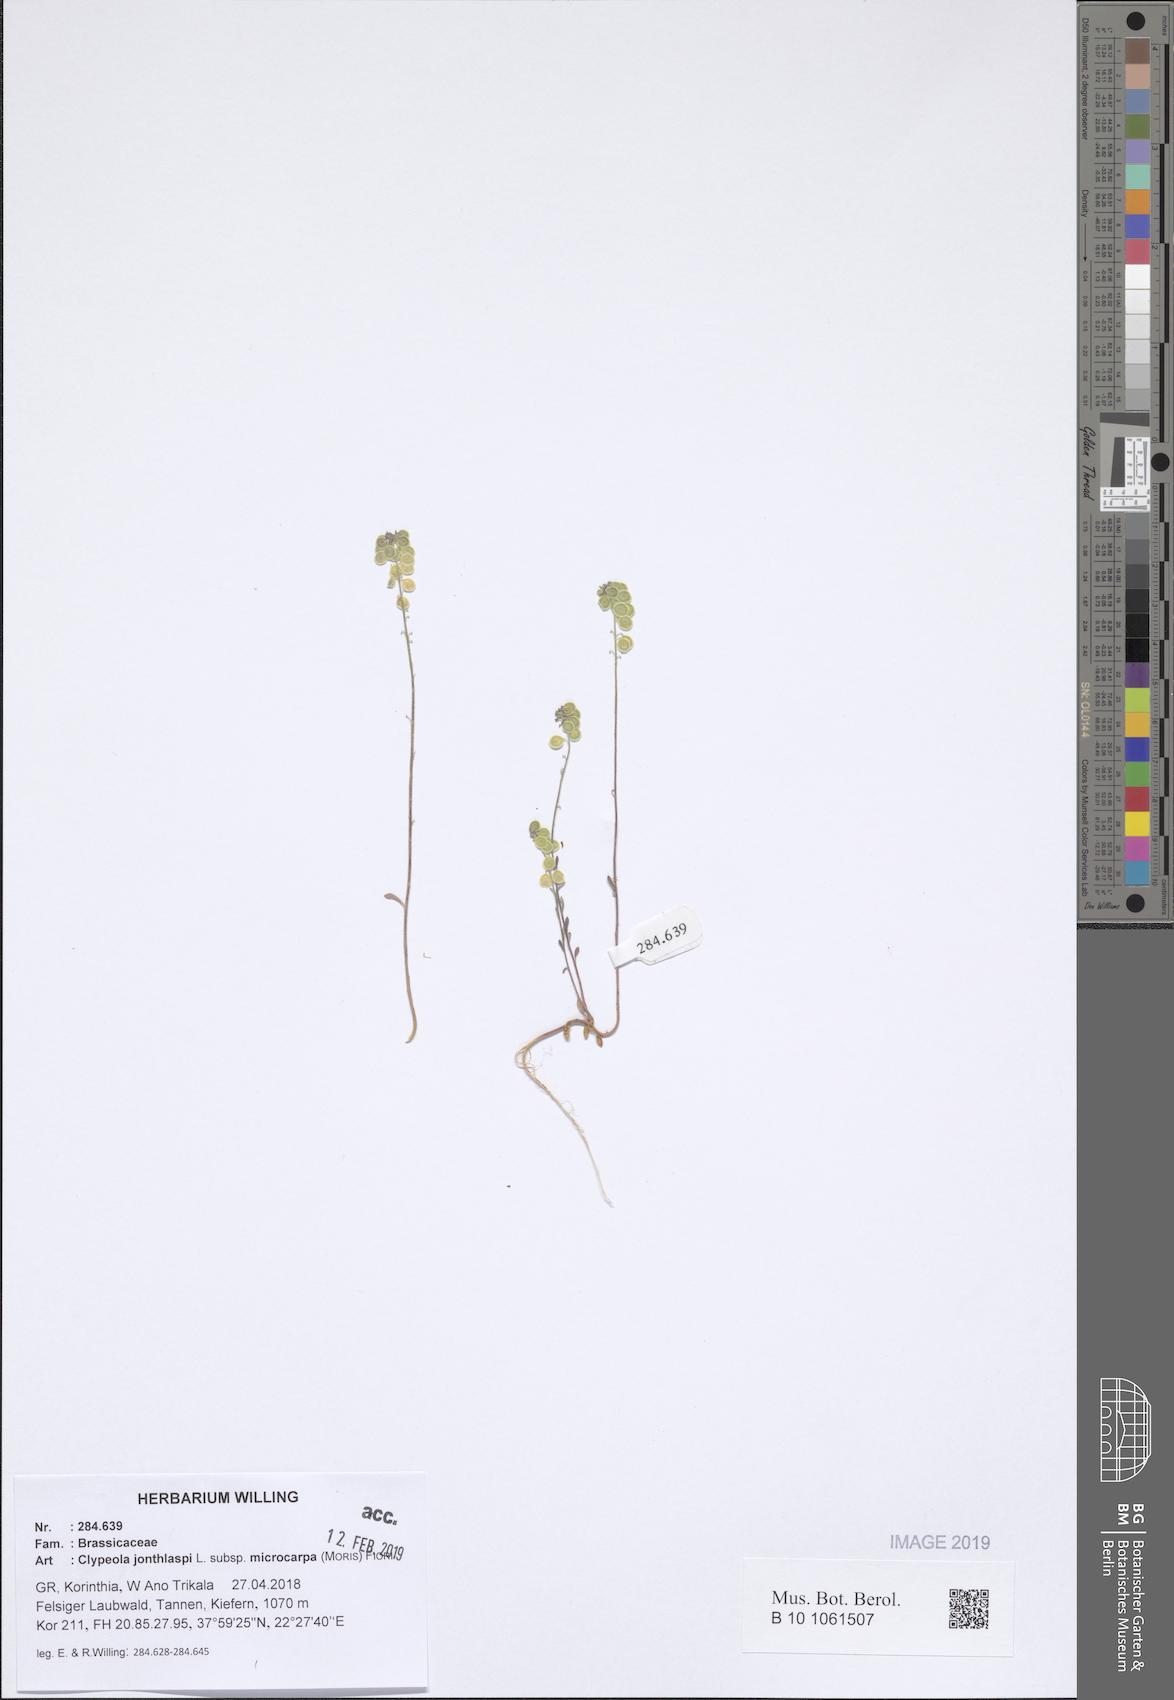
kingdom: Plantae
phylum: Tracheophyta
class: Magnoliopsida
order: Brassicales
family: Brassicaceae
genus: Clypeola
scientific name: Clypeola jonthlaspi
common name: Disk cress
